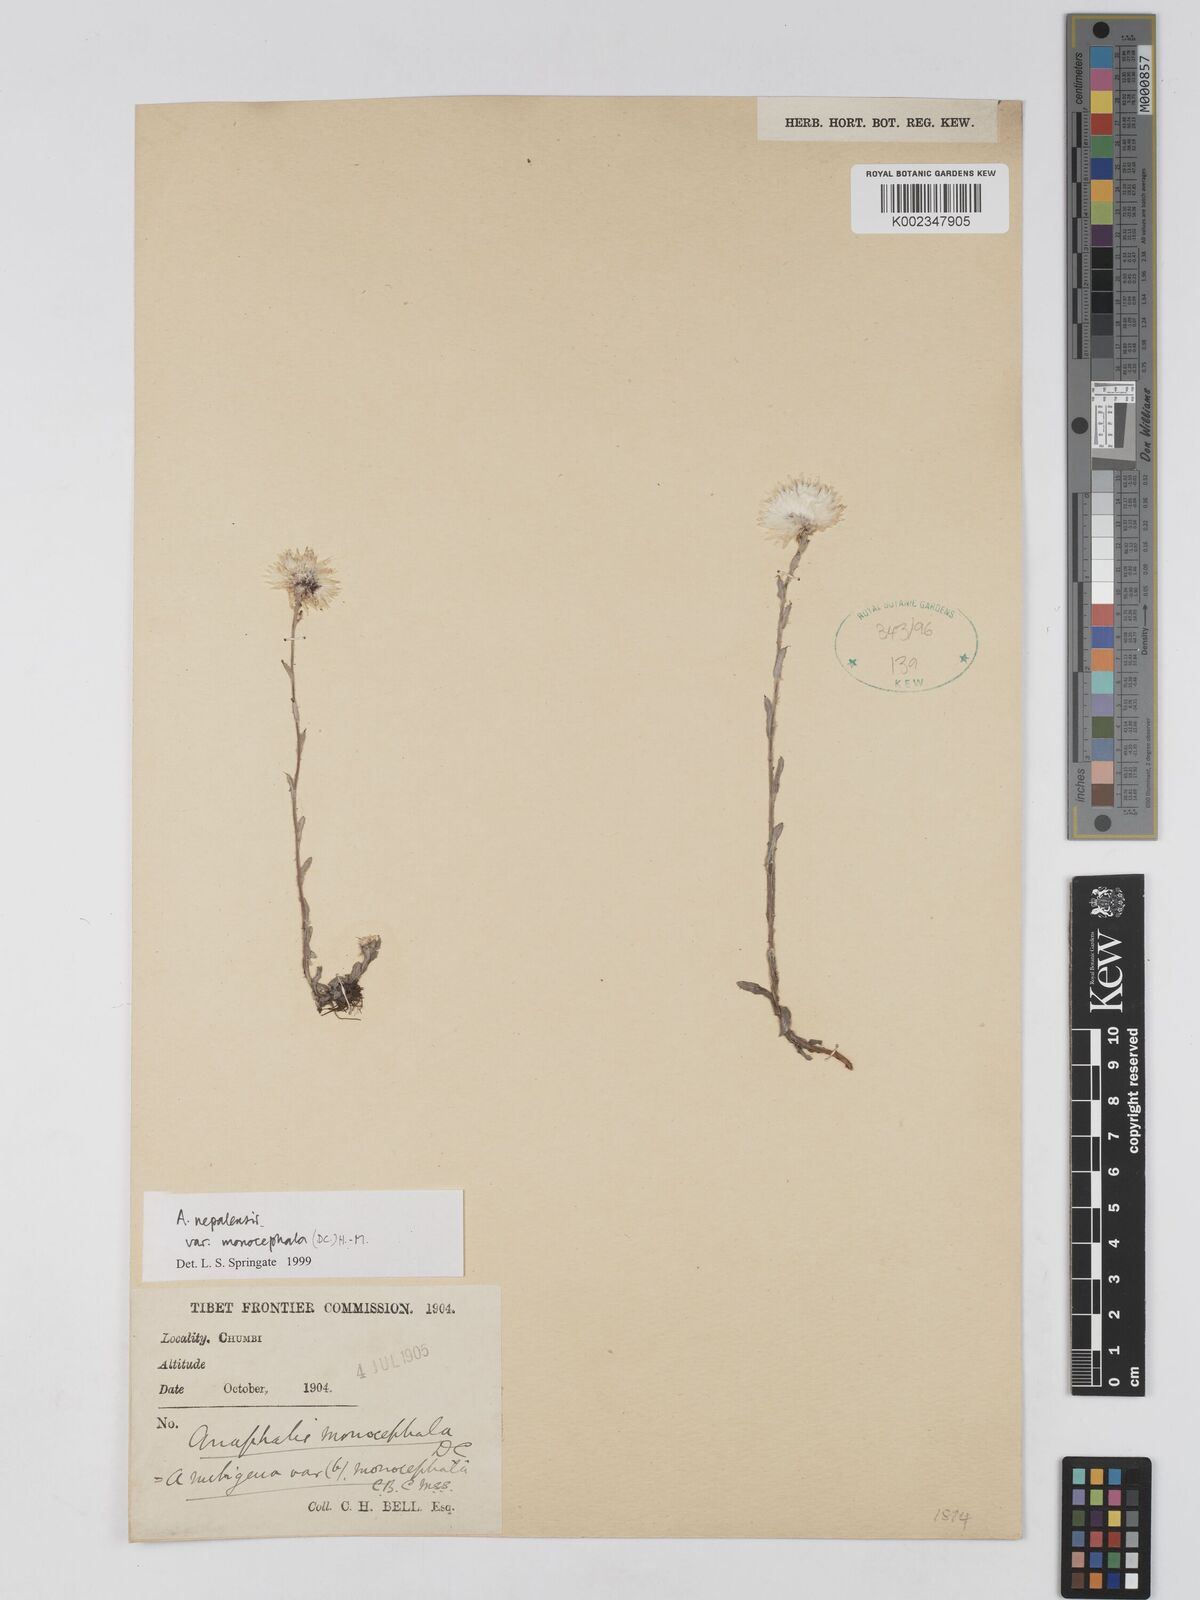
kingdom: Plantae
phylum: Tracheophyta
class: Magnoliopsida
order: Asterales
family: Asteraceae
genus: Anaphalis
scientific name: Anaphalis nepalensis
